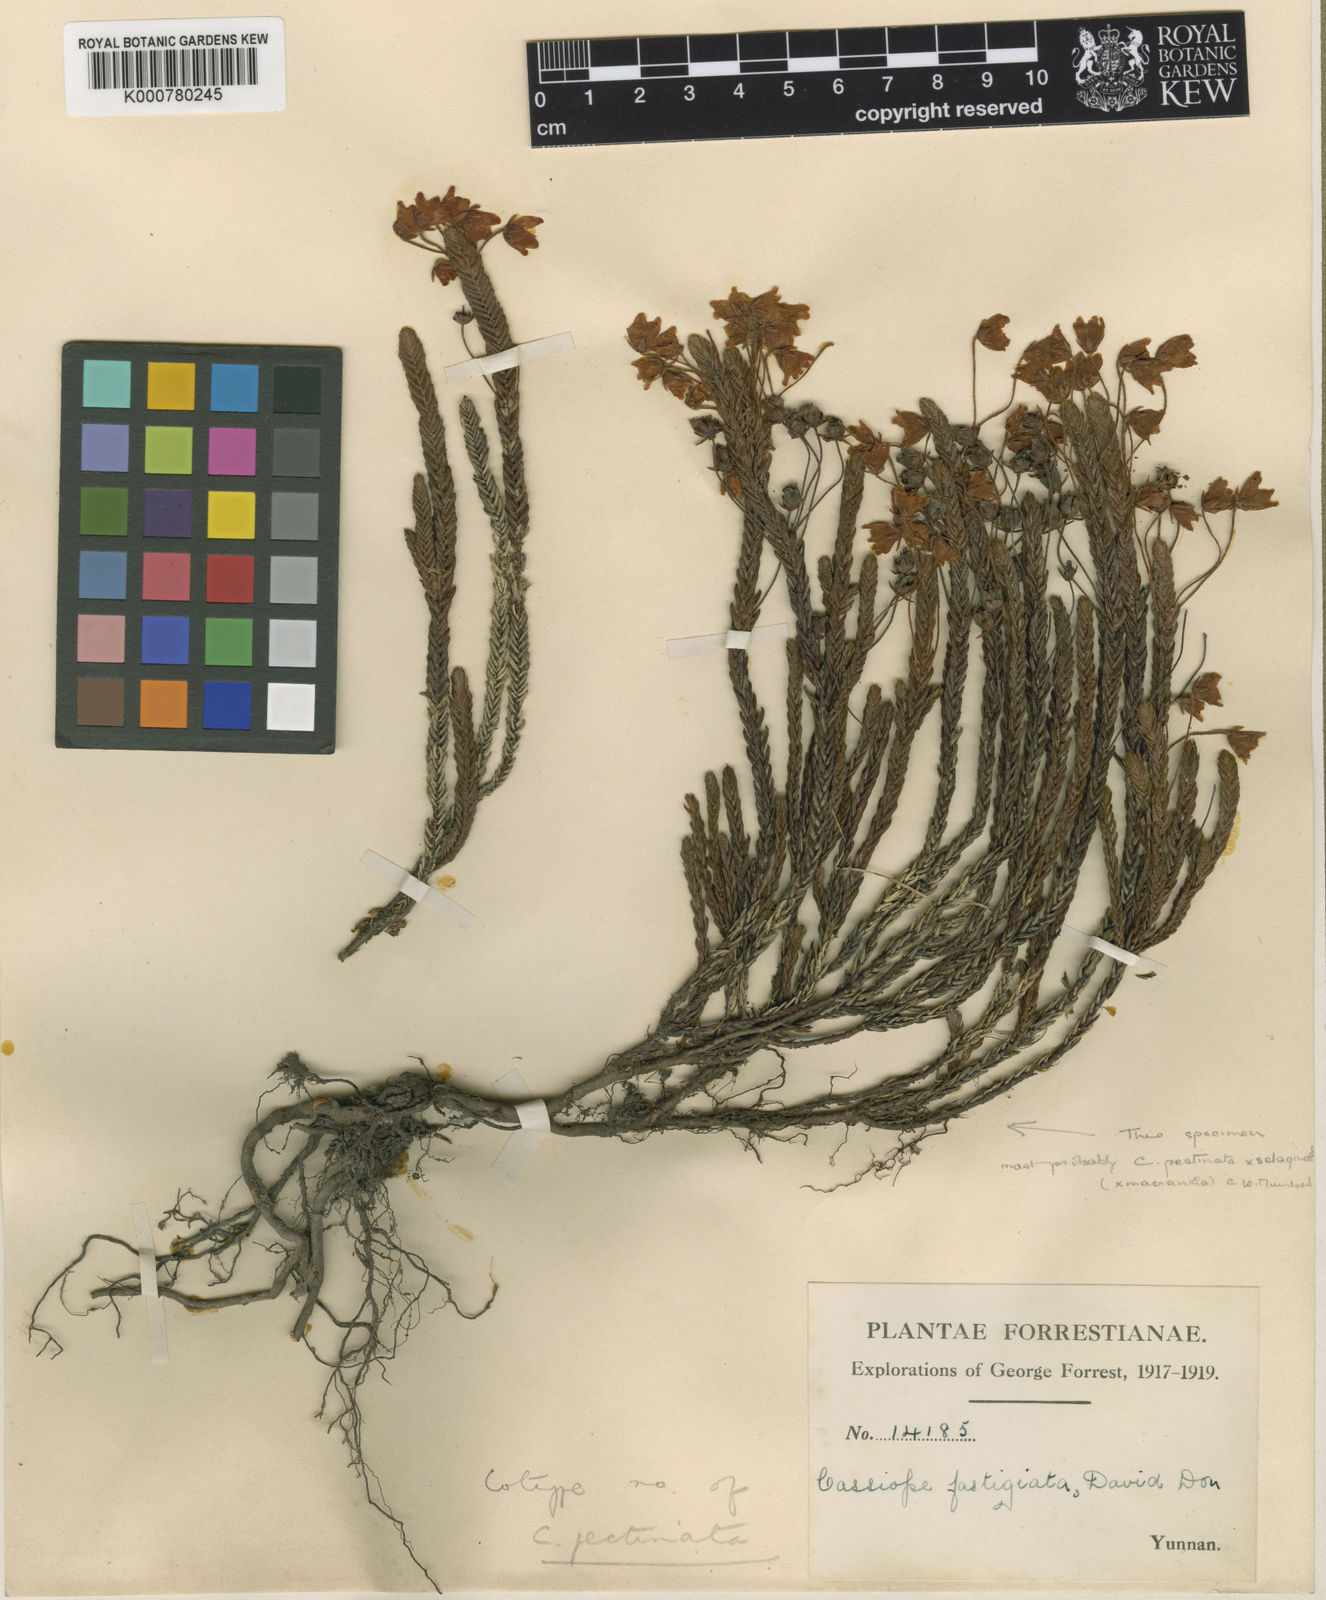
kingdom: Plantae
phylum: Tracheophyta
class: Magnoliopsida
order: Ericales
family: Ericaceae
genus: Cassiope
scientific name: Cassiope pectinata
